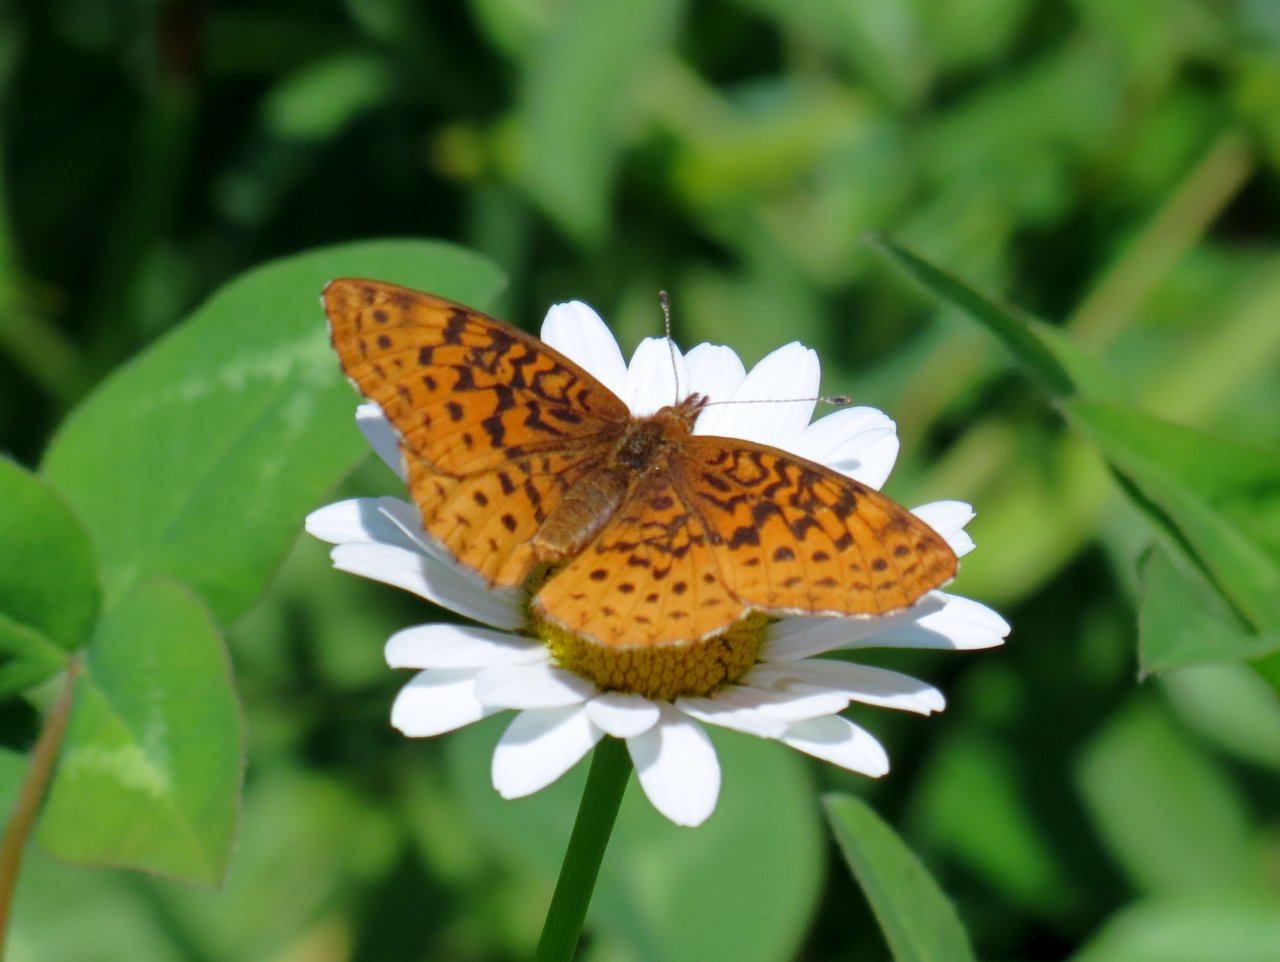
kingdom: Animalia
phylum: Arthropoda
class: Insecta
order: Lepidoptera
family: Nymphalidae
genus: Clossiana
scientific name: Clossiana toddi
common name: Meadow Fritillary
